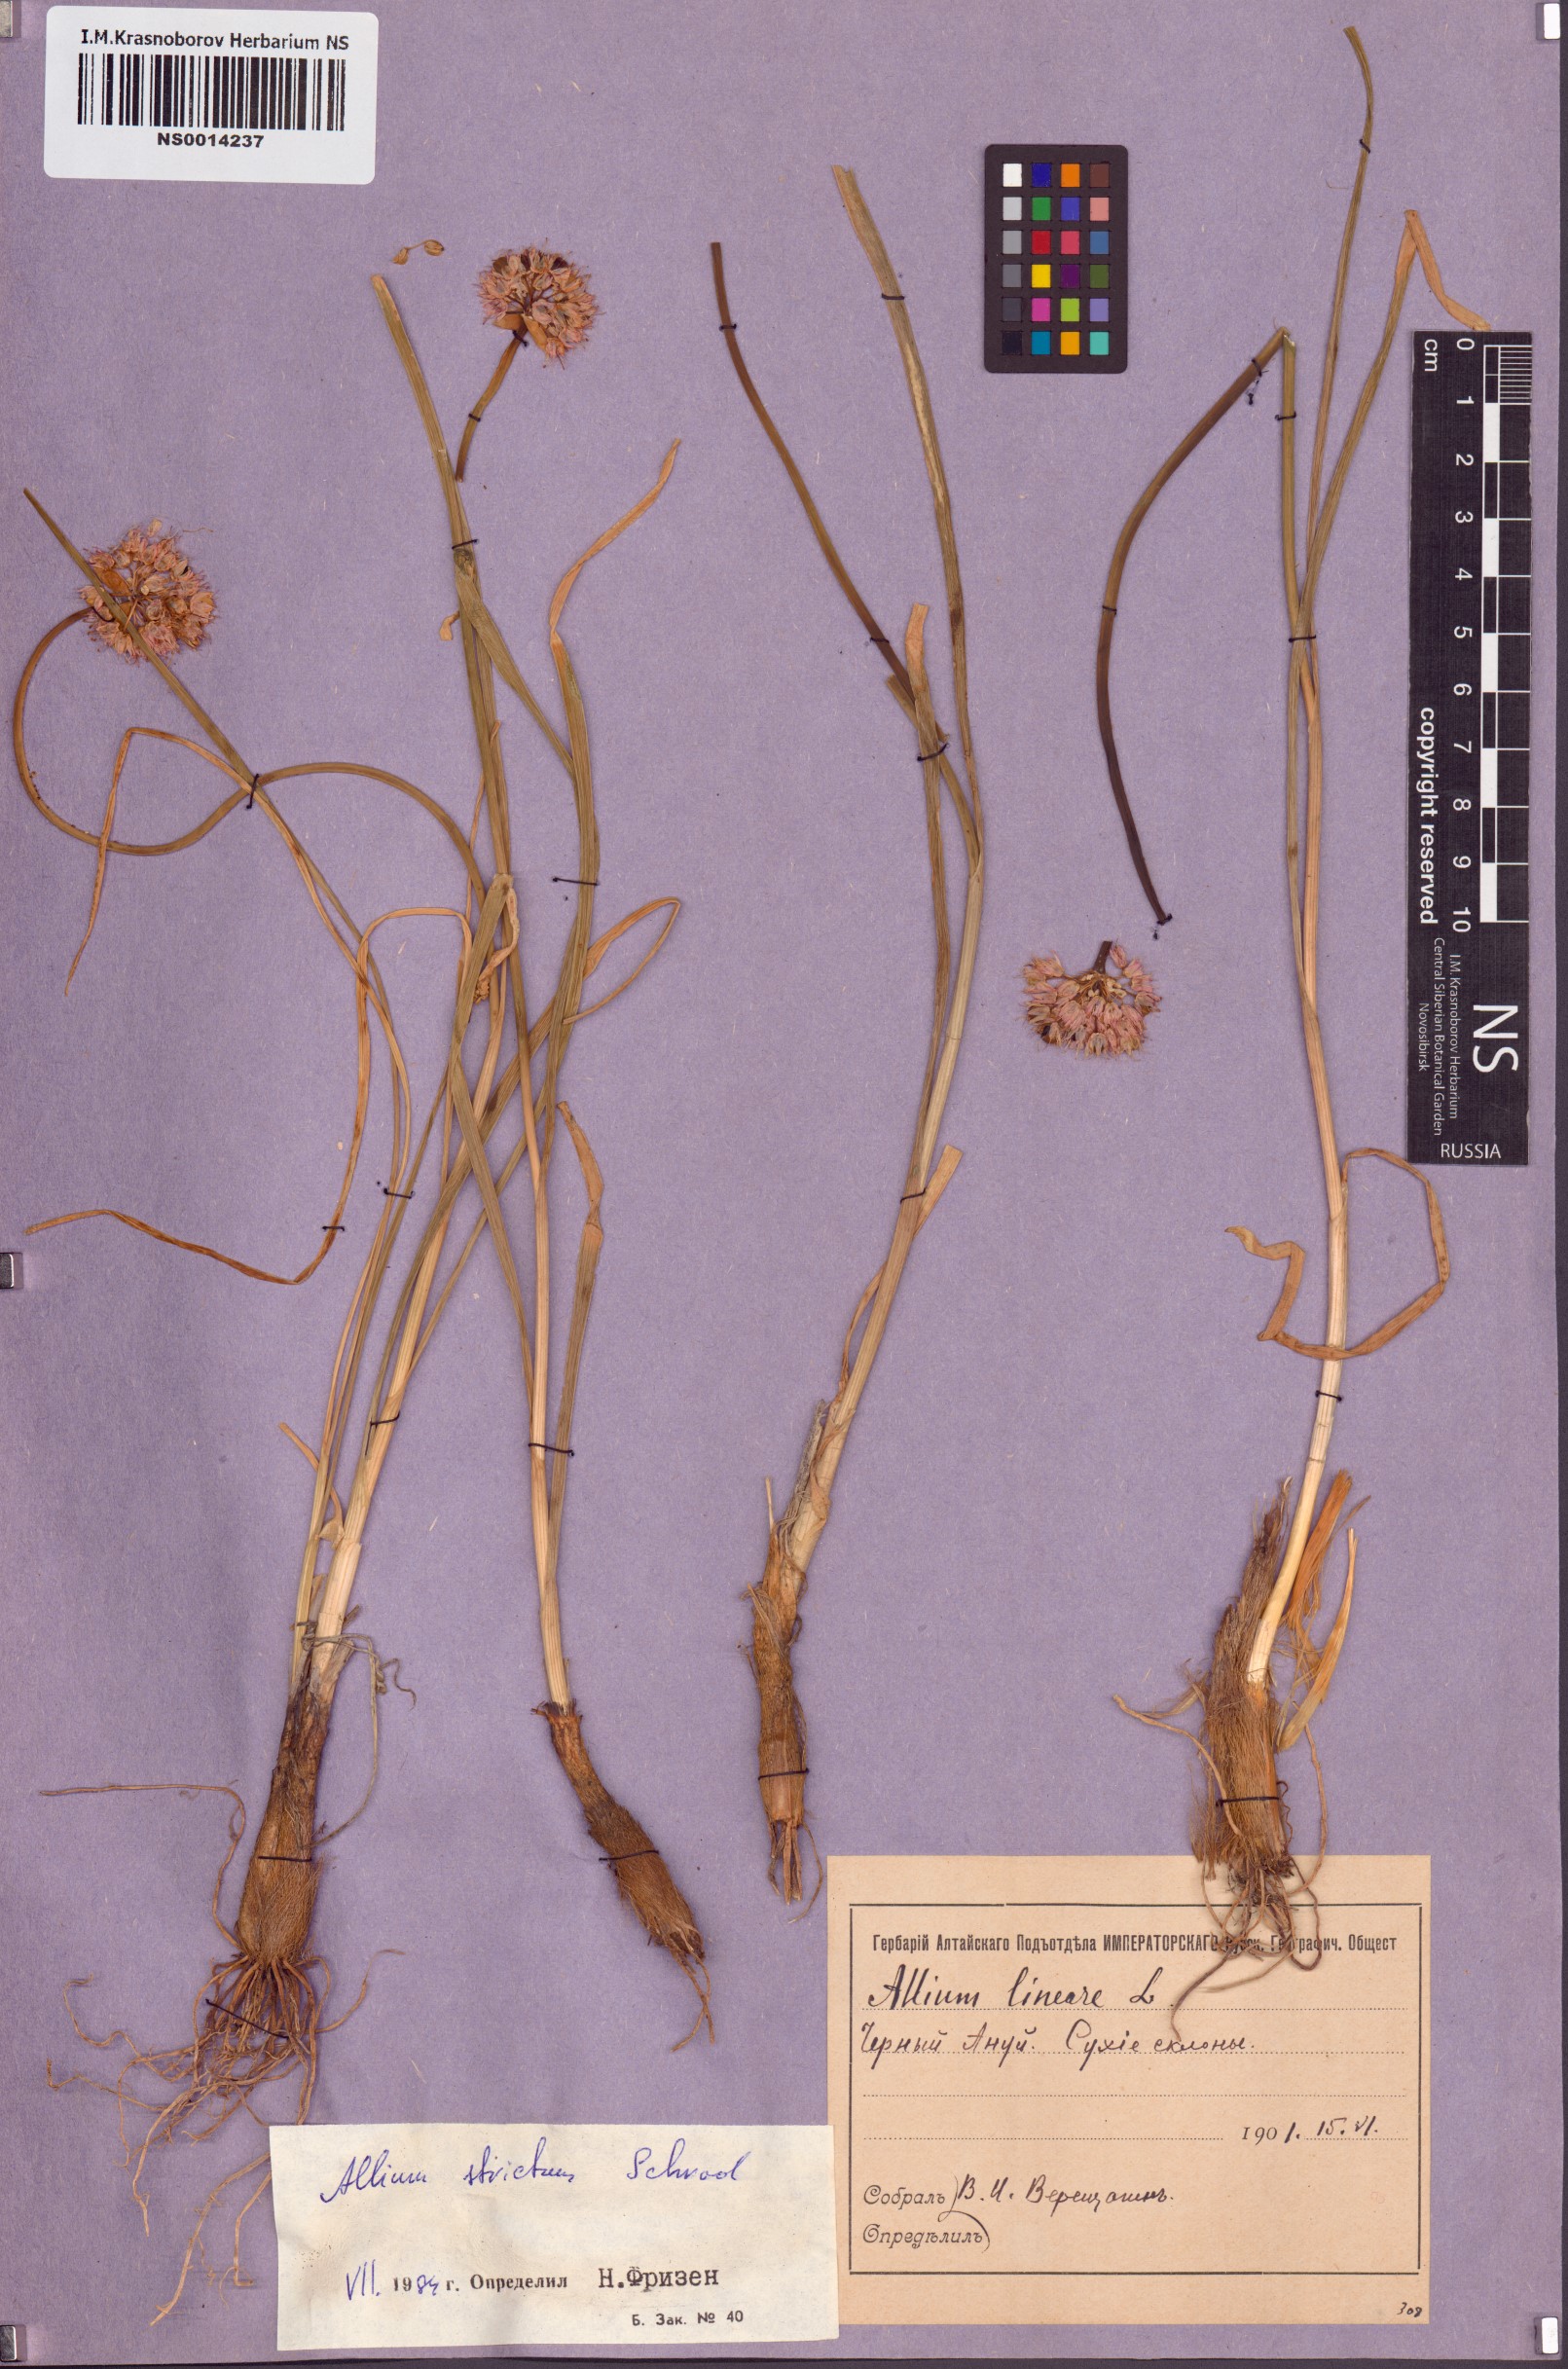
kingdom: Plantae
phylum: Tracheophyta
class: Liliopsida
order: Asparagales
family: Amaryllidaceae
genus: Allium
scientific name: Allium strictum
